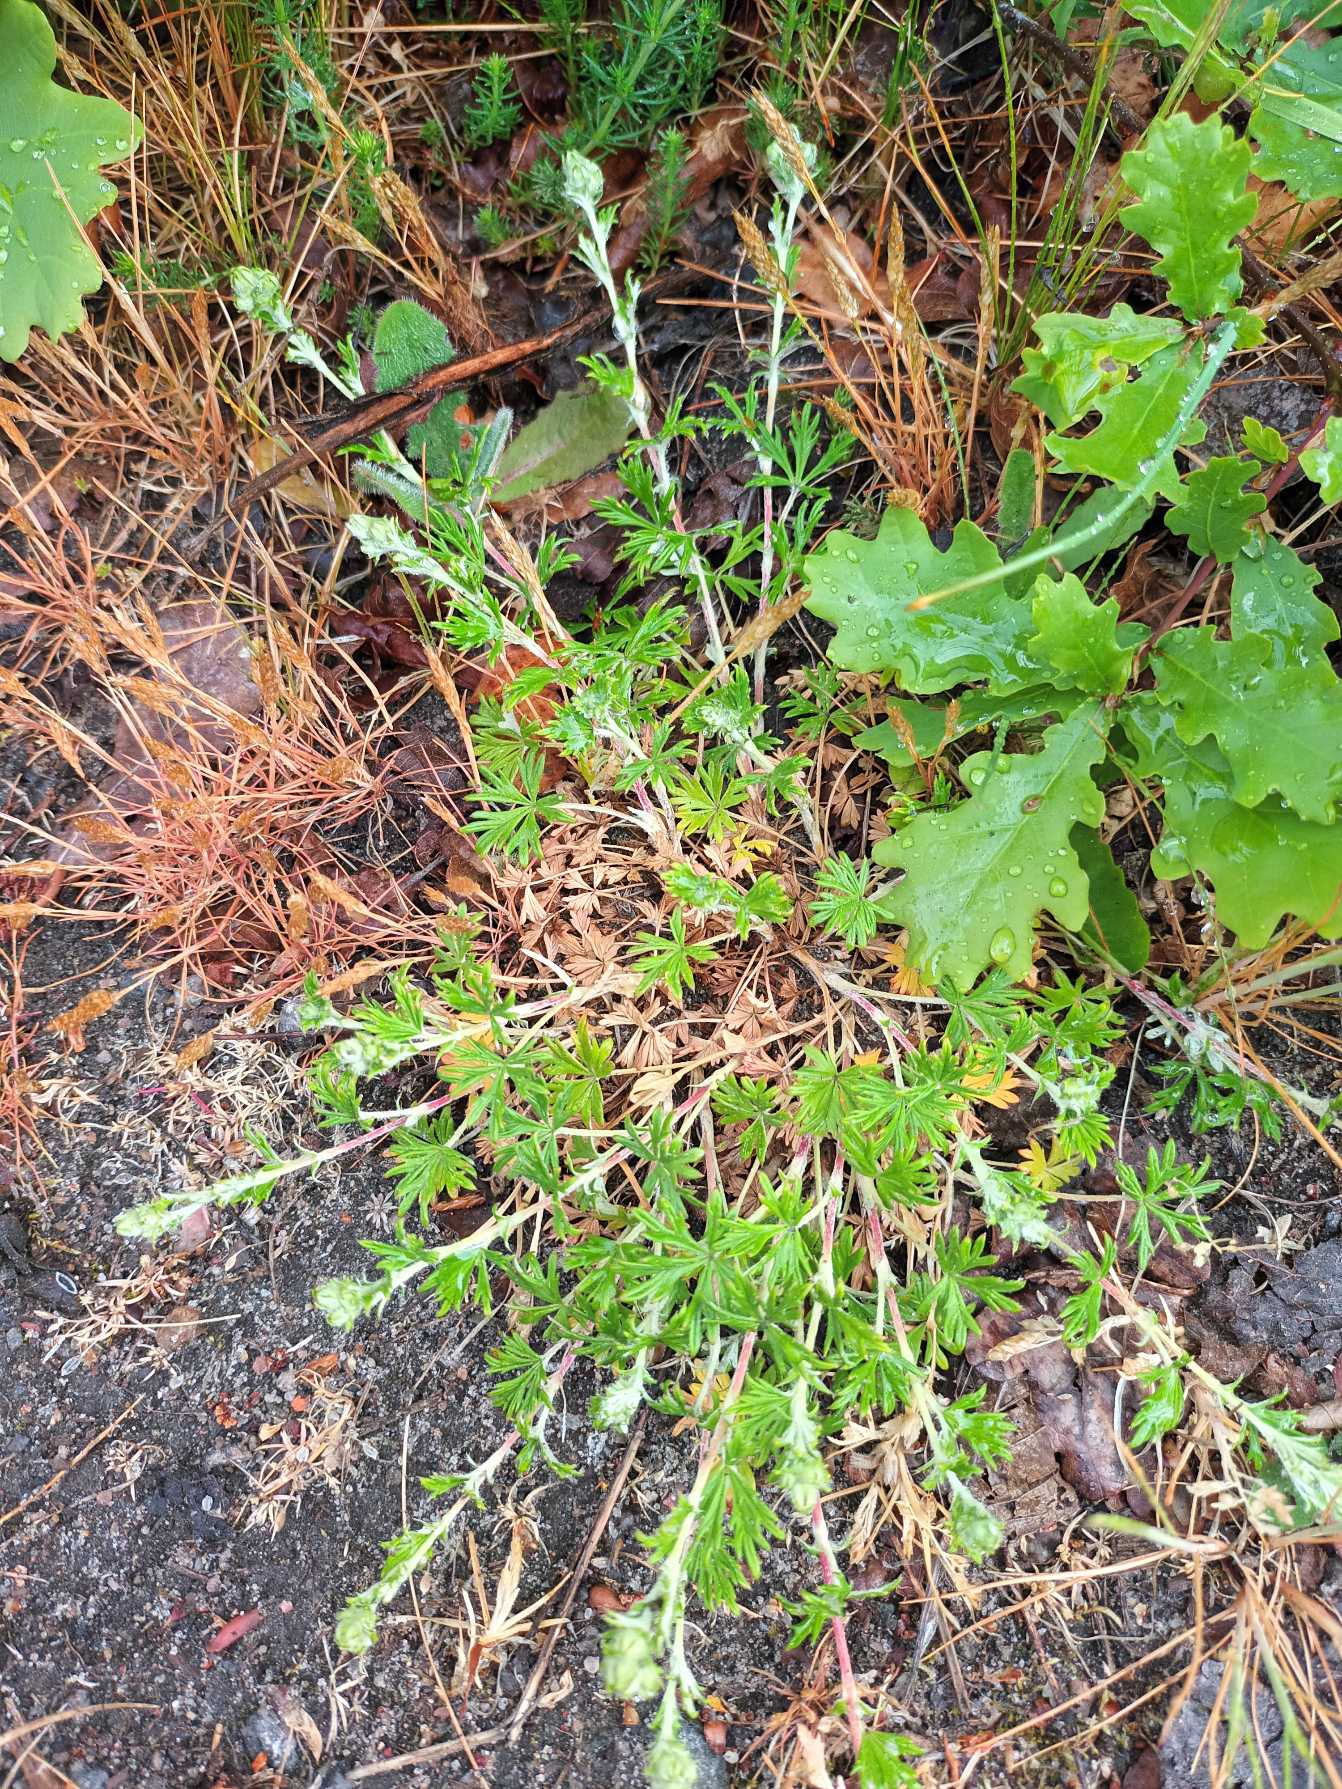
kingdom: Plantae
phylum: Tracheophyta
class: Magnoliopsida
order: Rosales
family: Rosaceae
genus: Potentilla
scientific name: Potentilla argentea
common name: Sølv-potentil
